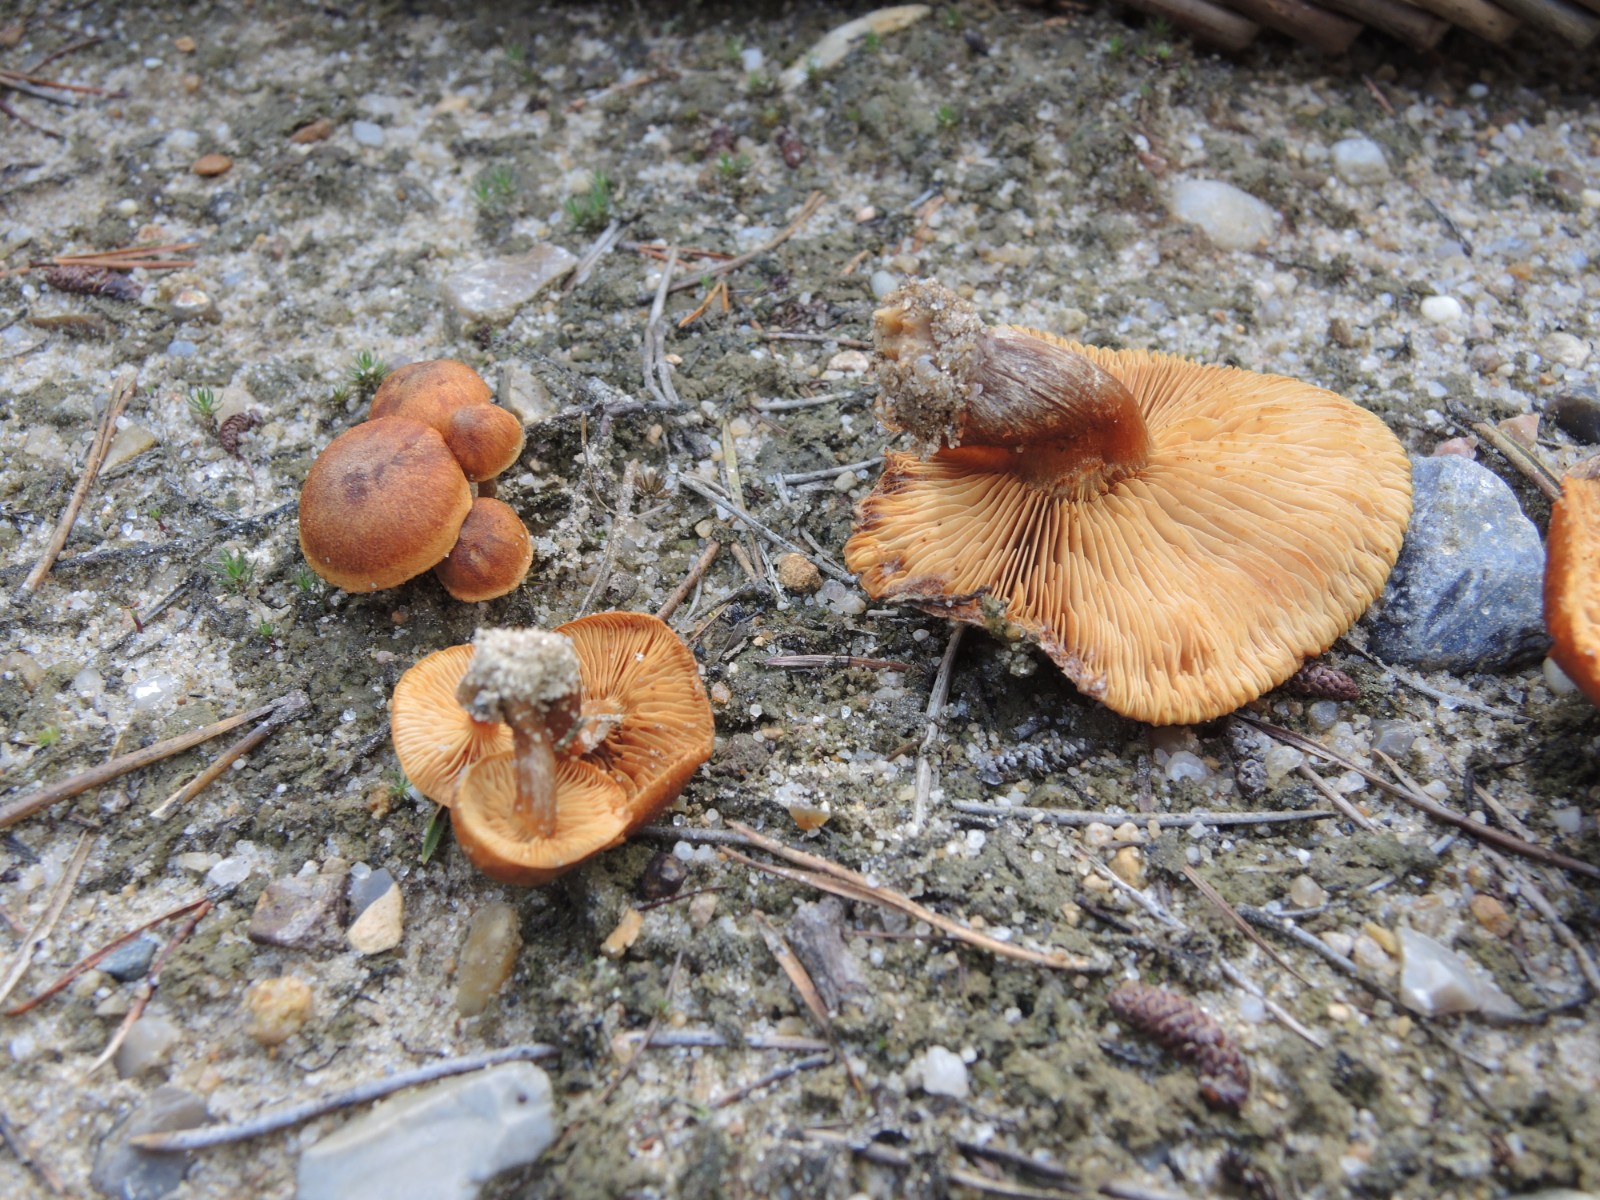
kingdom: Fungi
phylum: Basidiomycota
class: Agaricomycetes
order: Agaricales
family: Hymenogastraceae
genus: Gymnopilus
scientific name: Gymnopilus decipiens
